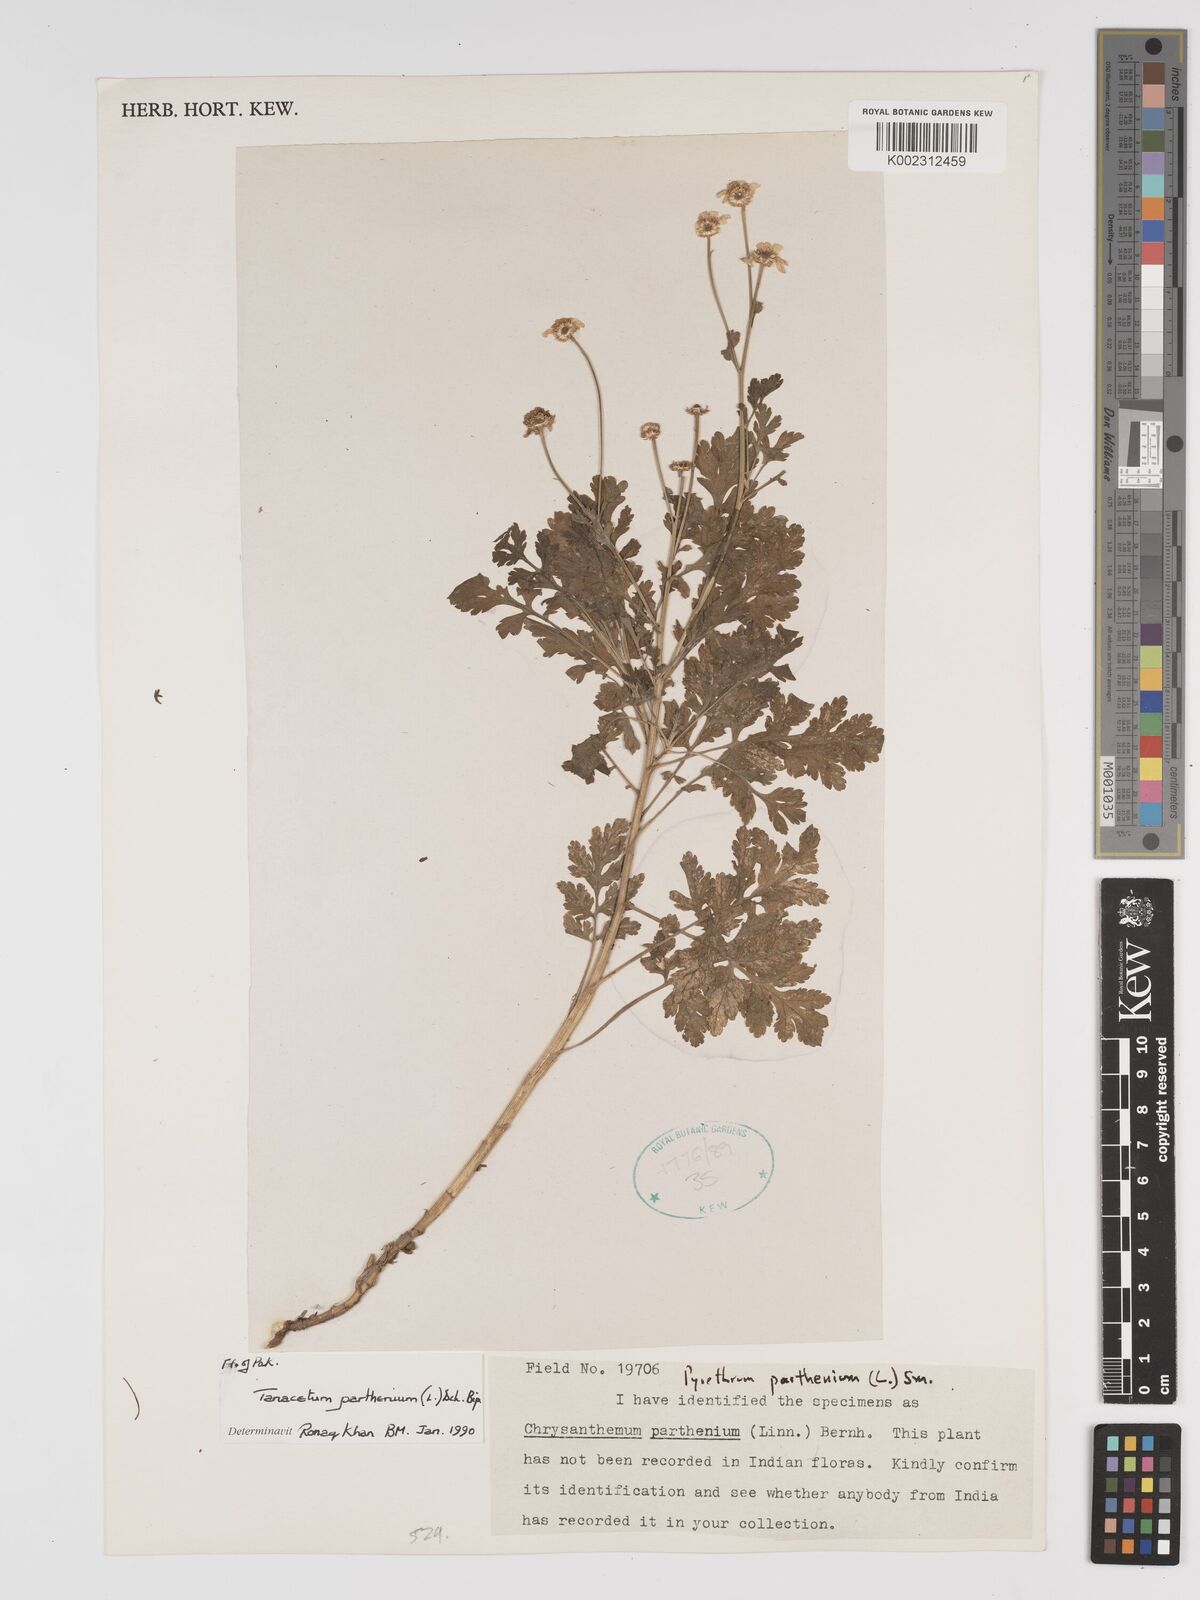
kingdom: Plantae
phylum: Tracheophyta
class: Magnoliopsida
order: Asterales
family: Asteraceae
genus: Tanacetum
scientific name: Tanacetum parthenium
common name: Feverfew
